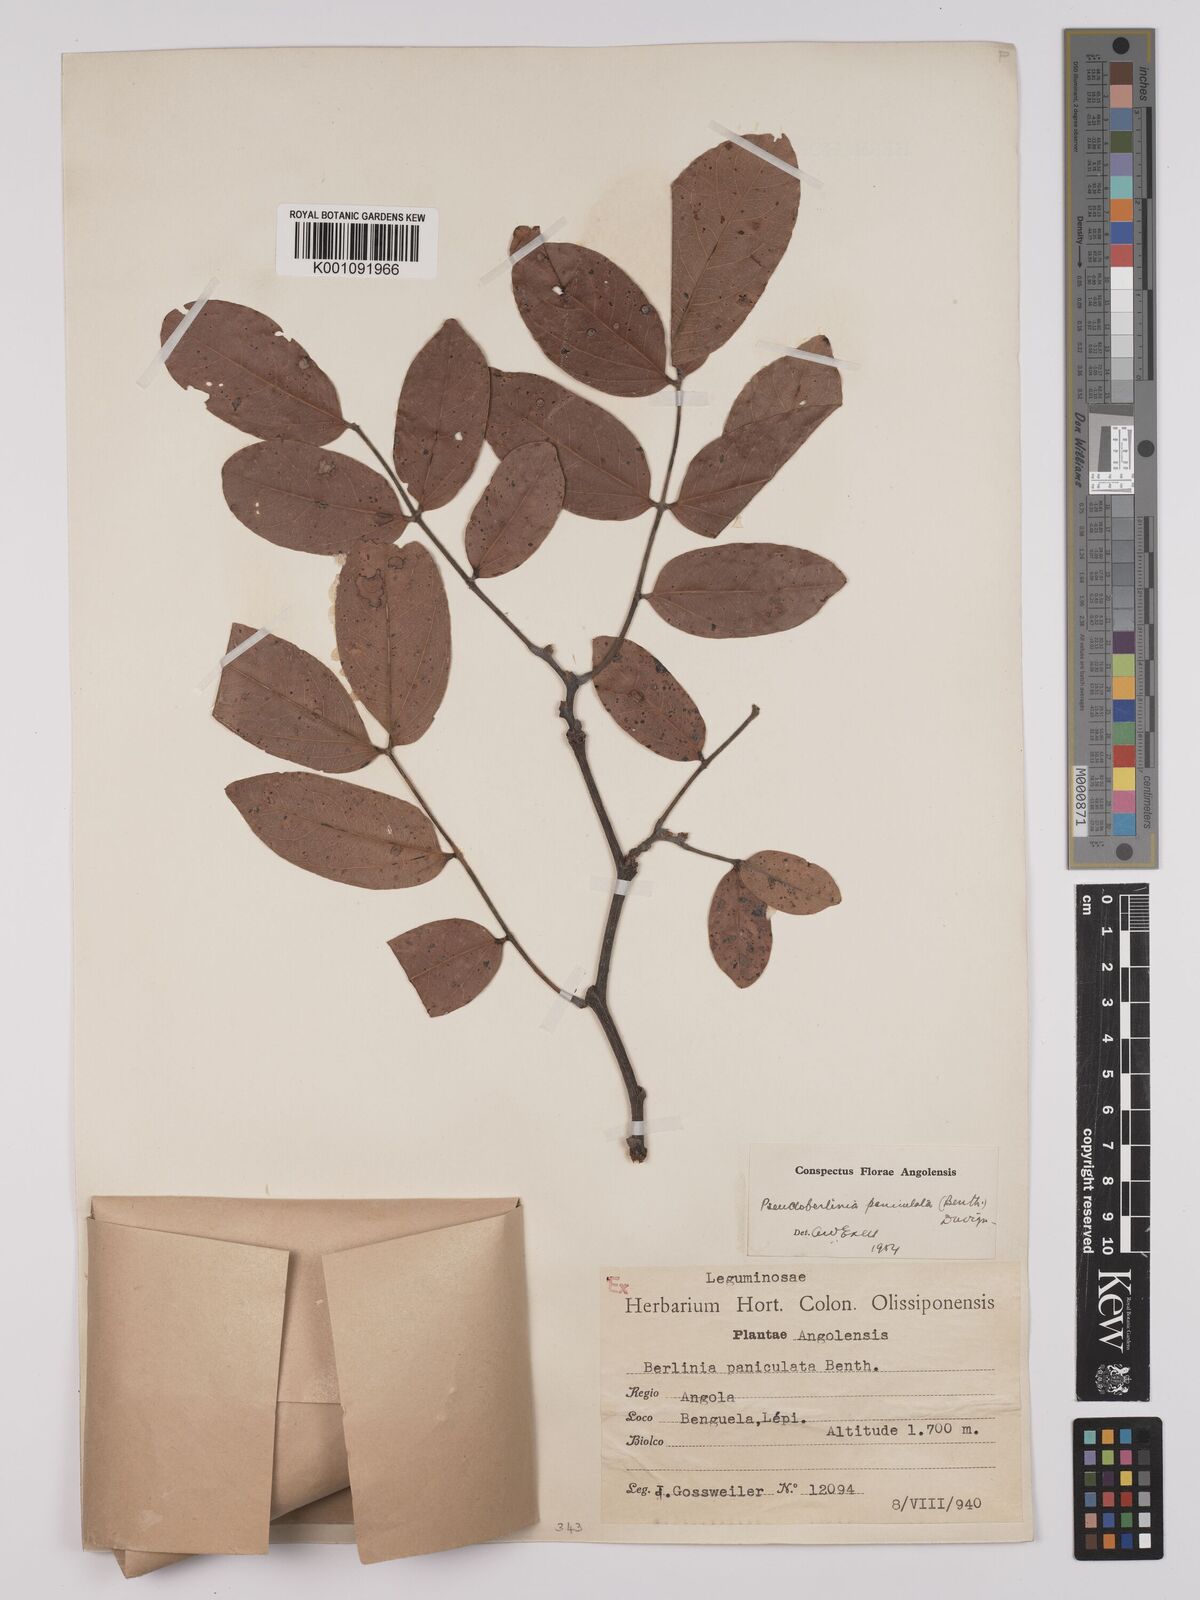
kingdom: Plantae
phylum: Tracheophyta
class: Magnoliopsida
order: Fabales
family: Fabaceae
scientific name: Fabaceae
